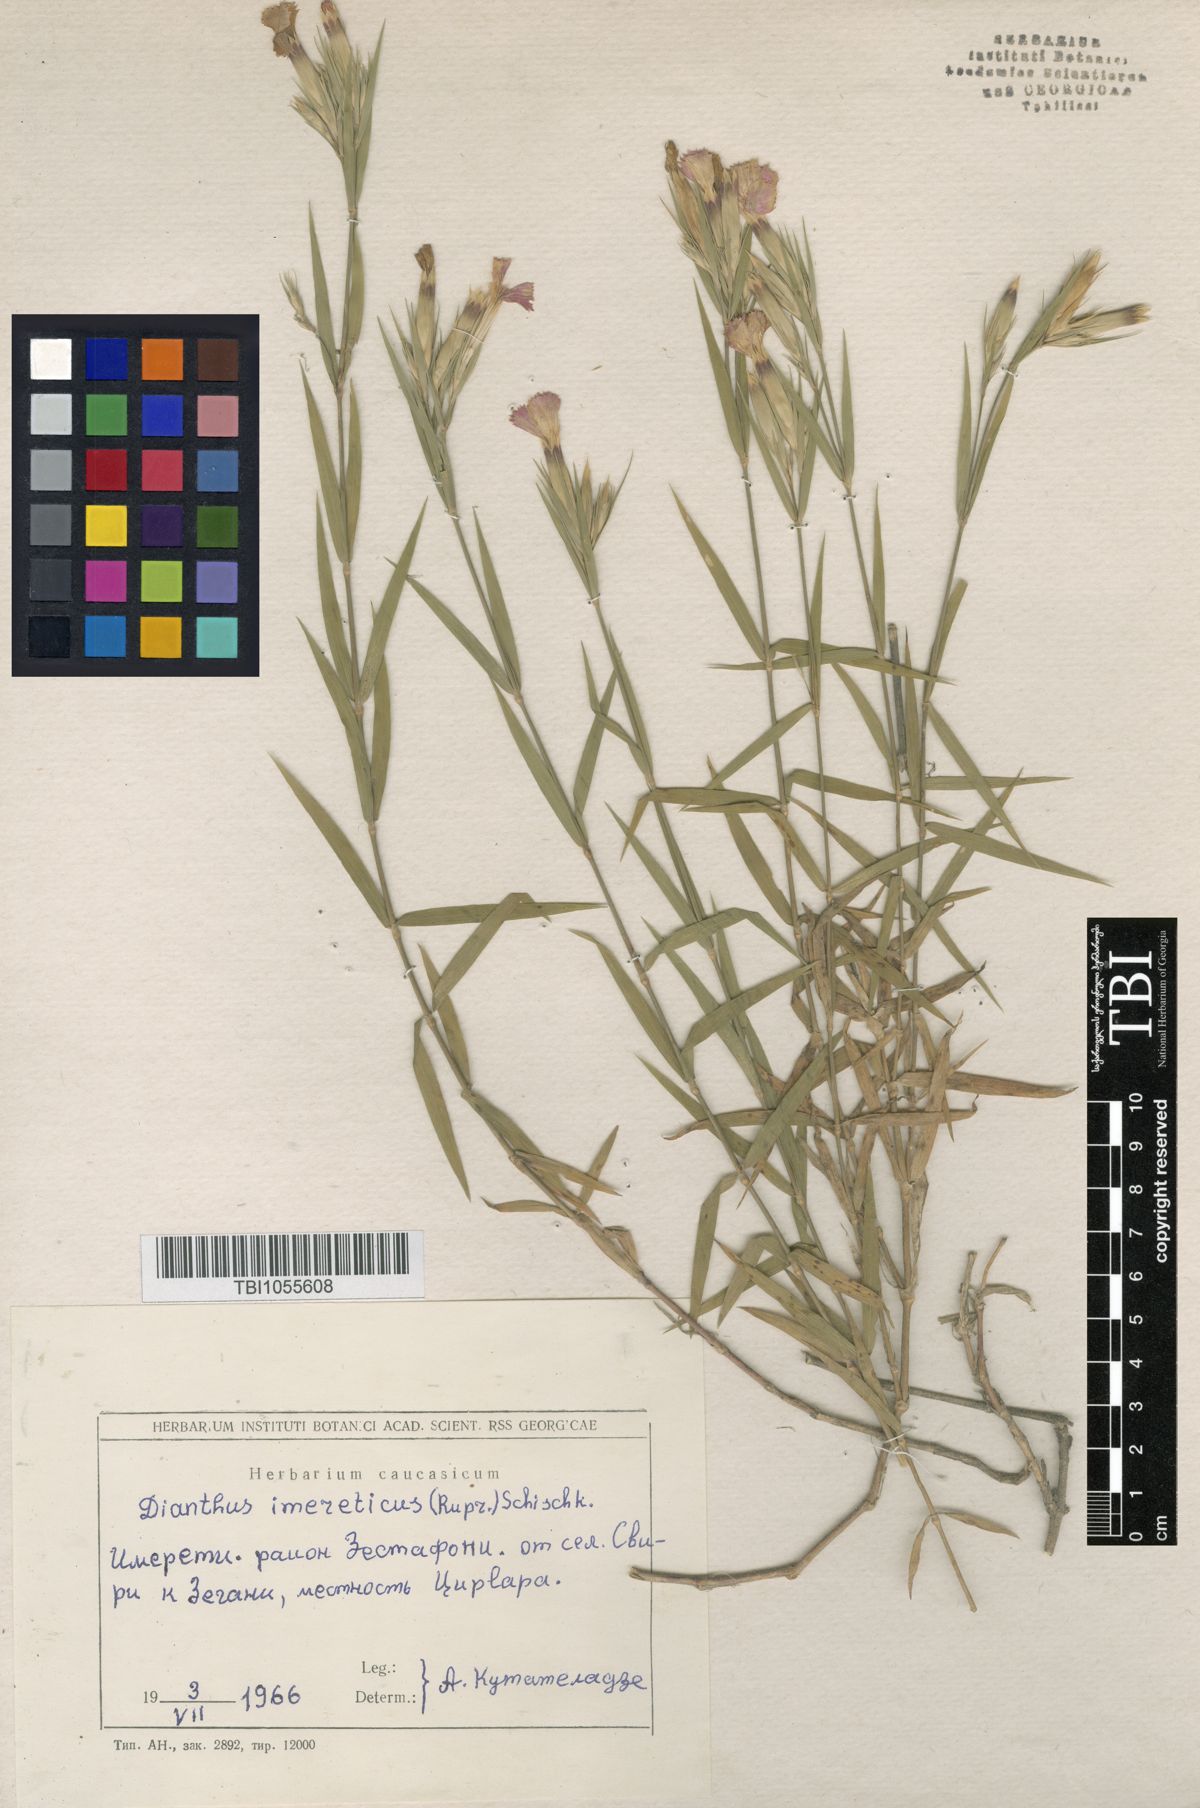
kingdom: Plantae
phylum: Tracheophyta
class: Magnoliopsida
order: Caryophyllales
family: Caryophyllaceae
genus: Dianthus
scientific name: Dianthus imereticus
